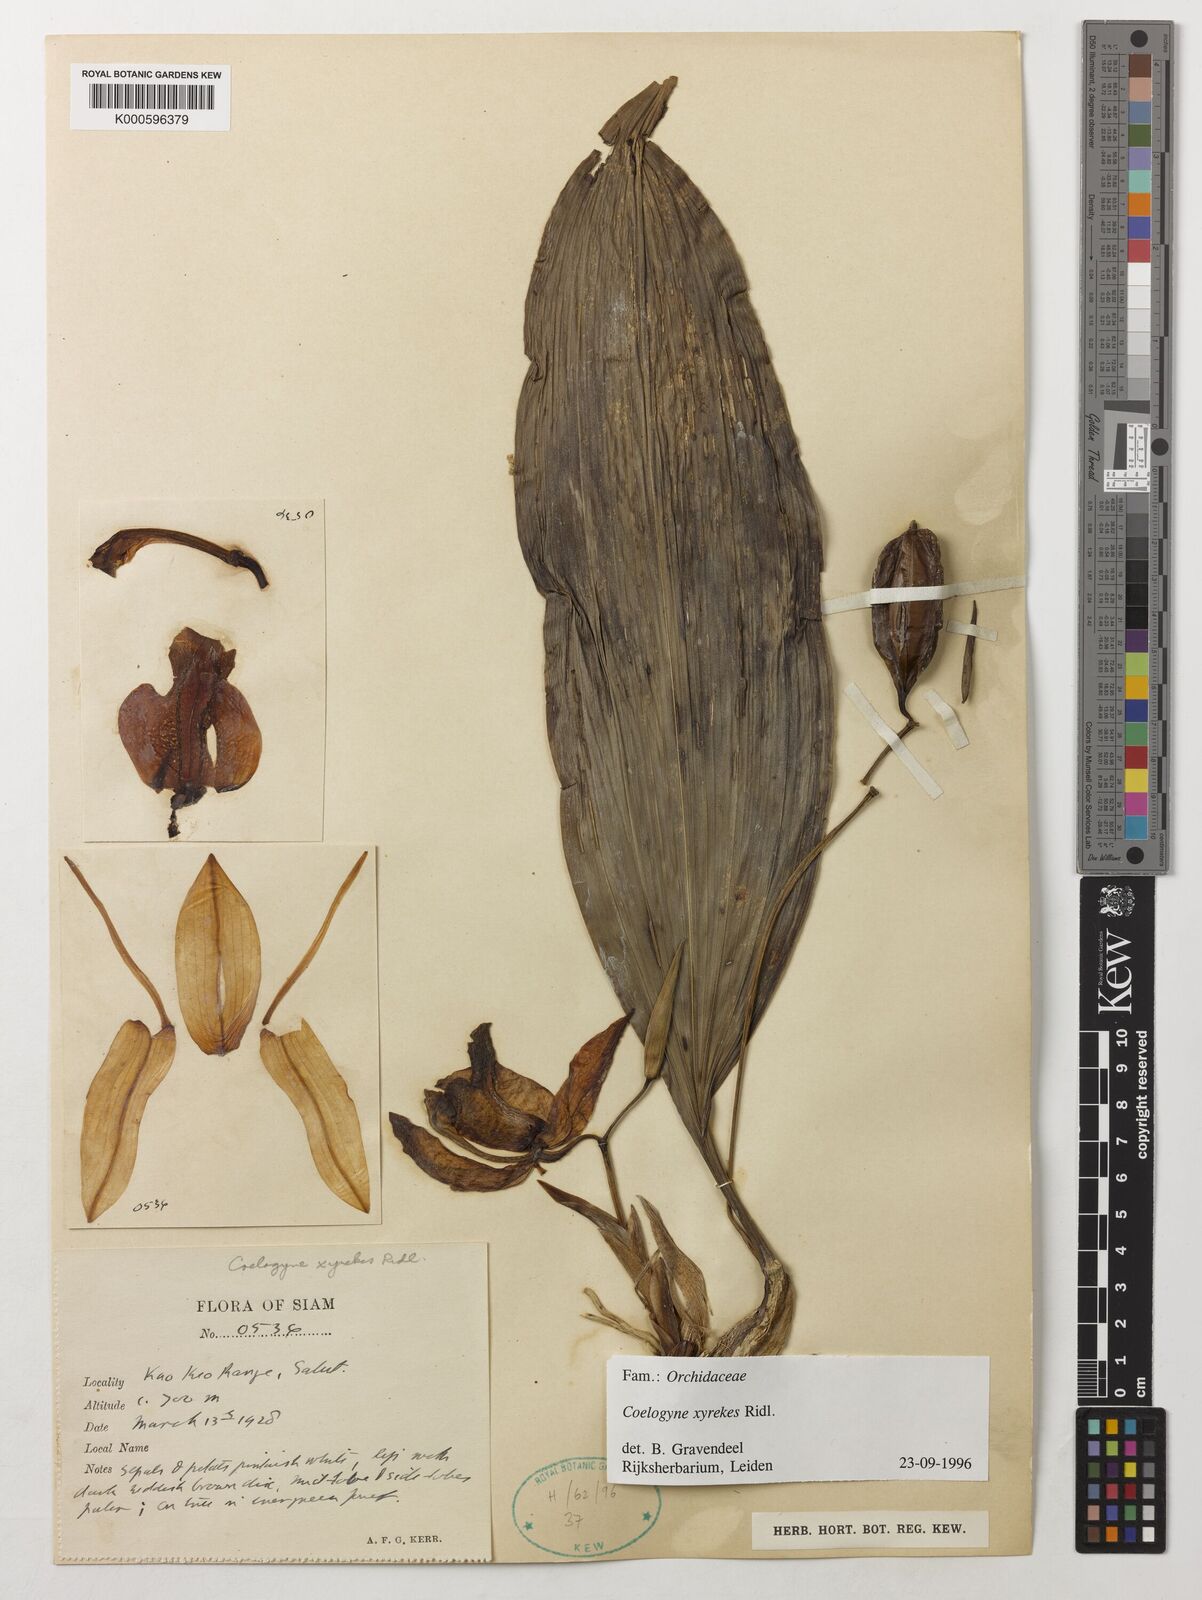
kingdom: Plantae
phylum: Tracheophyta
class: Liliopsida
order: Asparagales
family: Orchidaceae
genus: Coelogyne
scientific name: Coelogyne xyrekes
